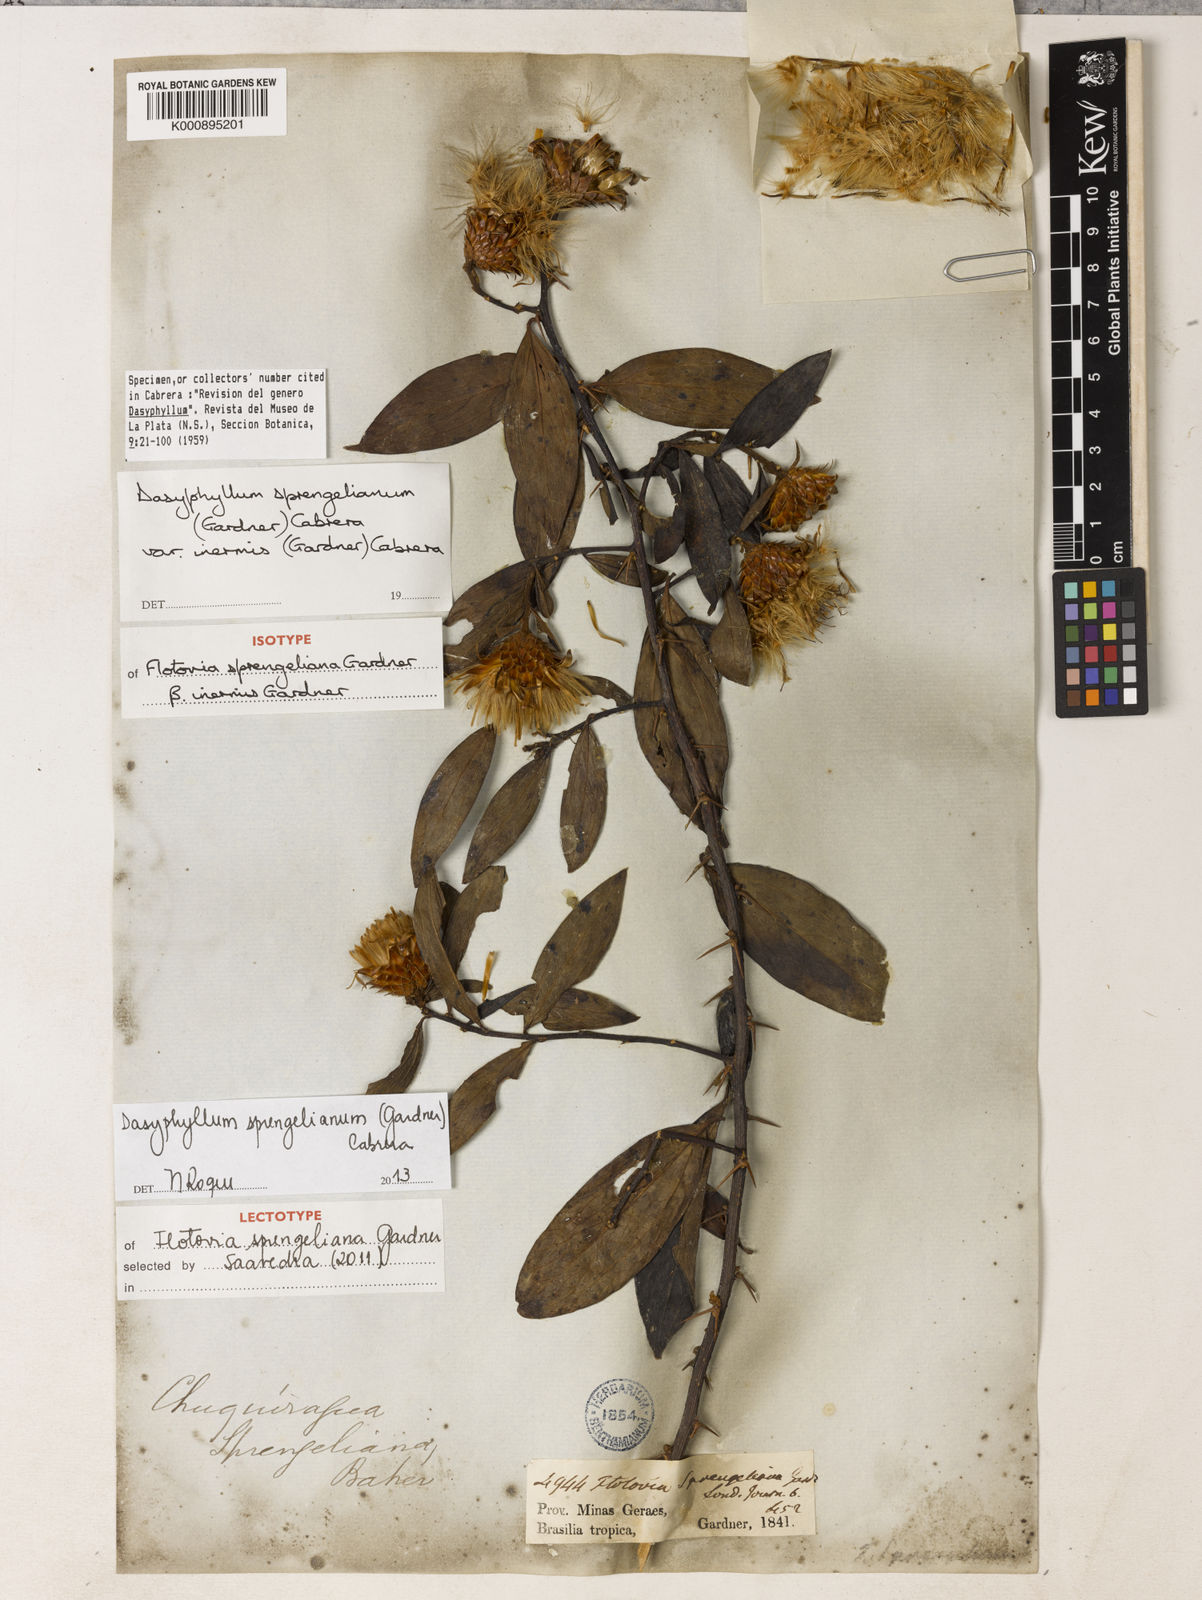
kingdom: Plantae
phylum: Tracheophyta
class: Magnoliopsida
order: Asterales
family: Asteraceae
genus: Dasyphyllum
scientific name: Dasyphyllum sprengelianum
